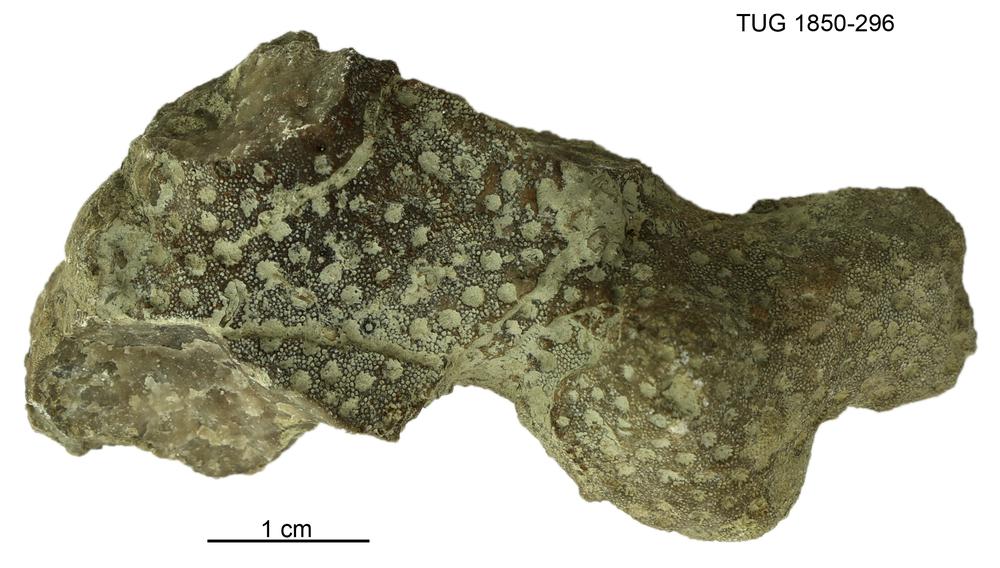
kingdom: Animalia
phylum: Cnidaria
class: Anthozoa
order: Heliolitina
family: Heliolitidae
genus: Heliolites
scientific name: Heliolites
